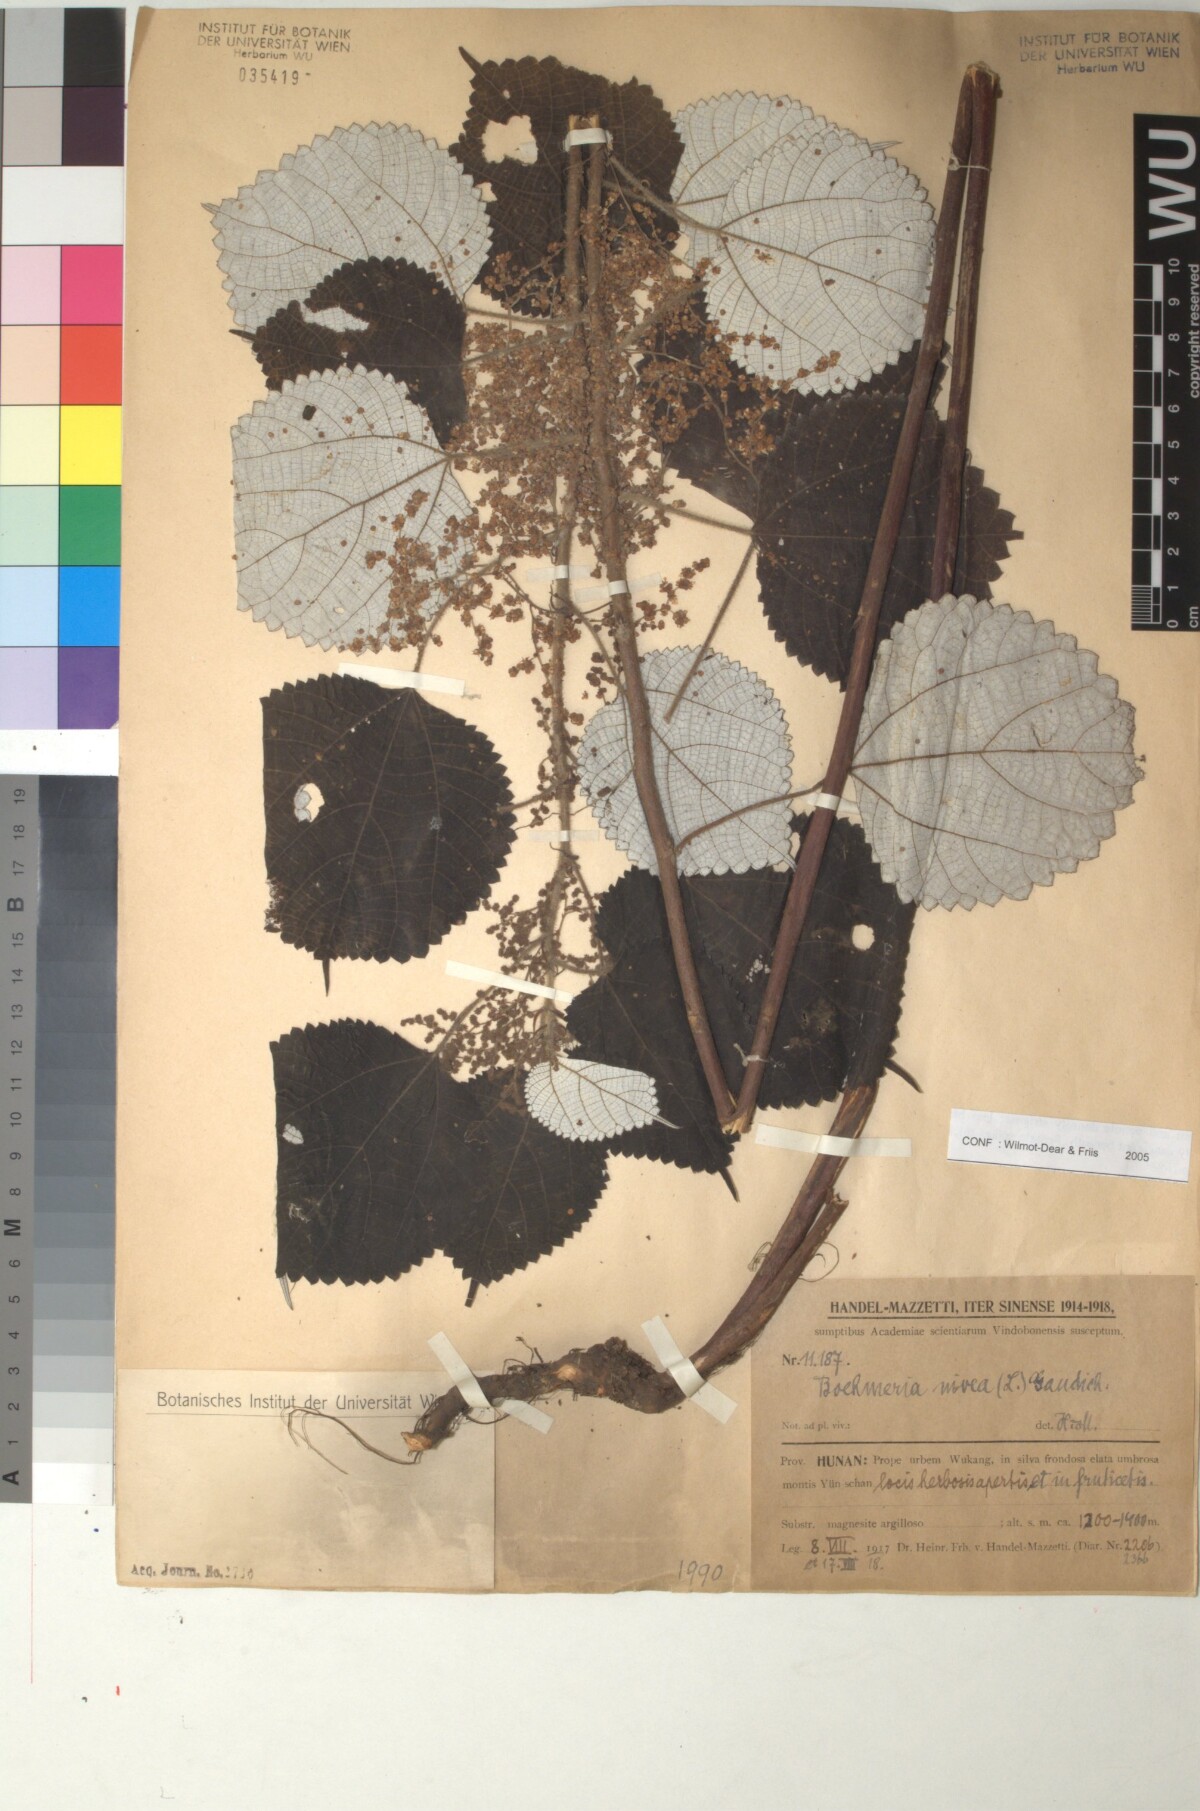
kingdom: Plantae
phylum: Tracheophyta
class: Magnoliopsida
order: Rosales
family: Urticaceae
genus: Boehmeria
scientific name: Boehmeria nivea
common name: Ramie chinese grass
